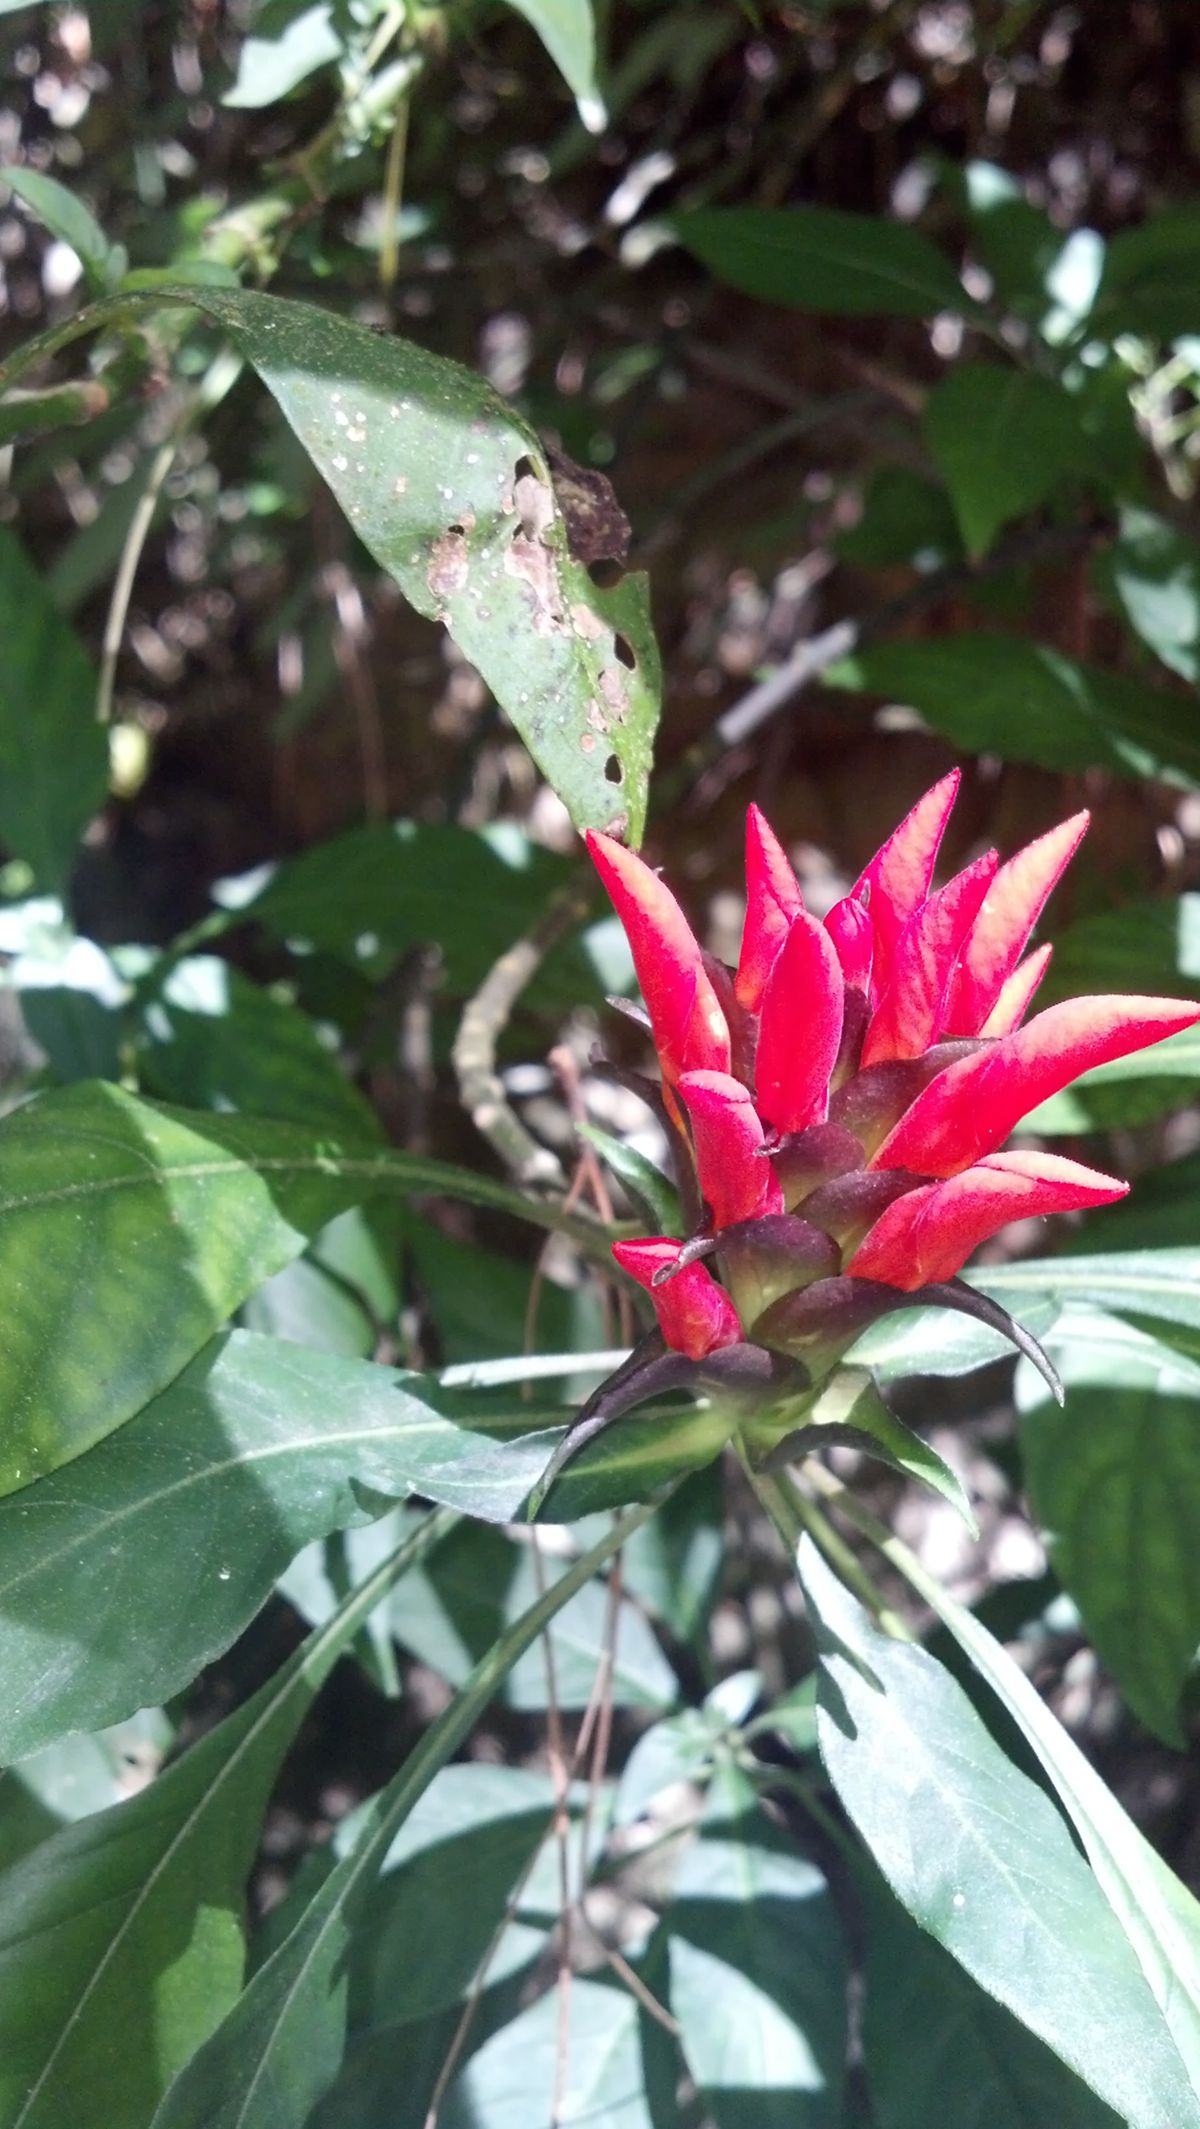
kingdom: Plantae
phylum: Tracheophyta
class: Magnoliopsida
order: Lamiales
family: Acanthaceae
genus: Aphelandra
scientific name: Aphelandra heydeana
